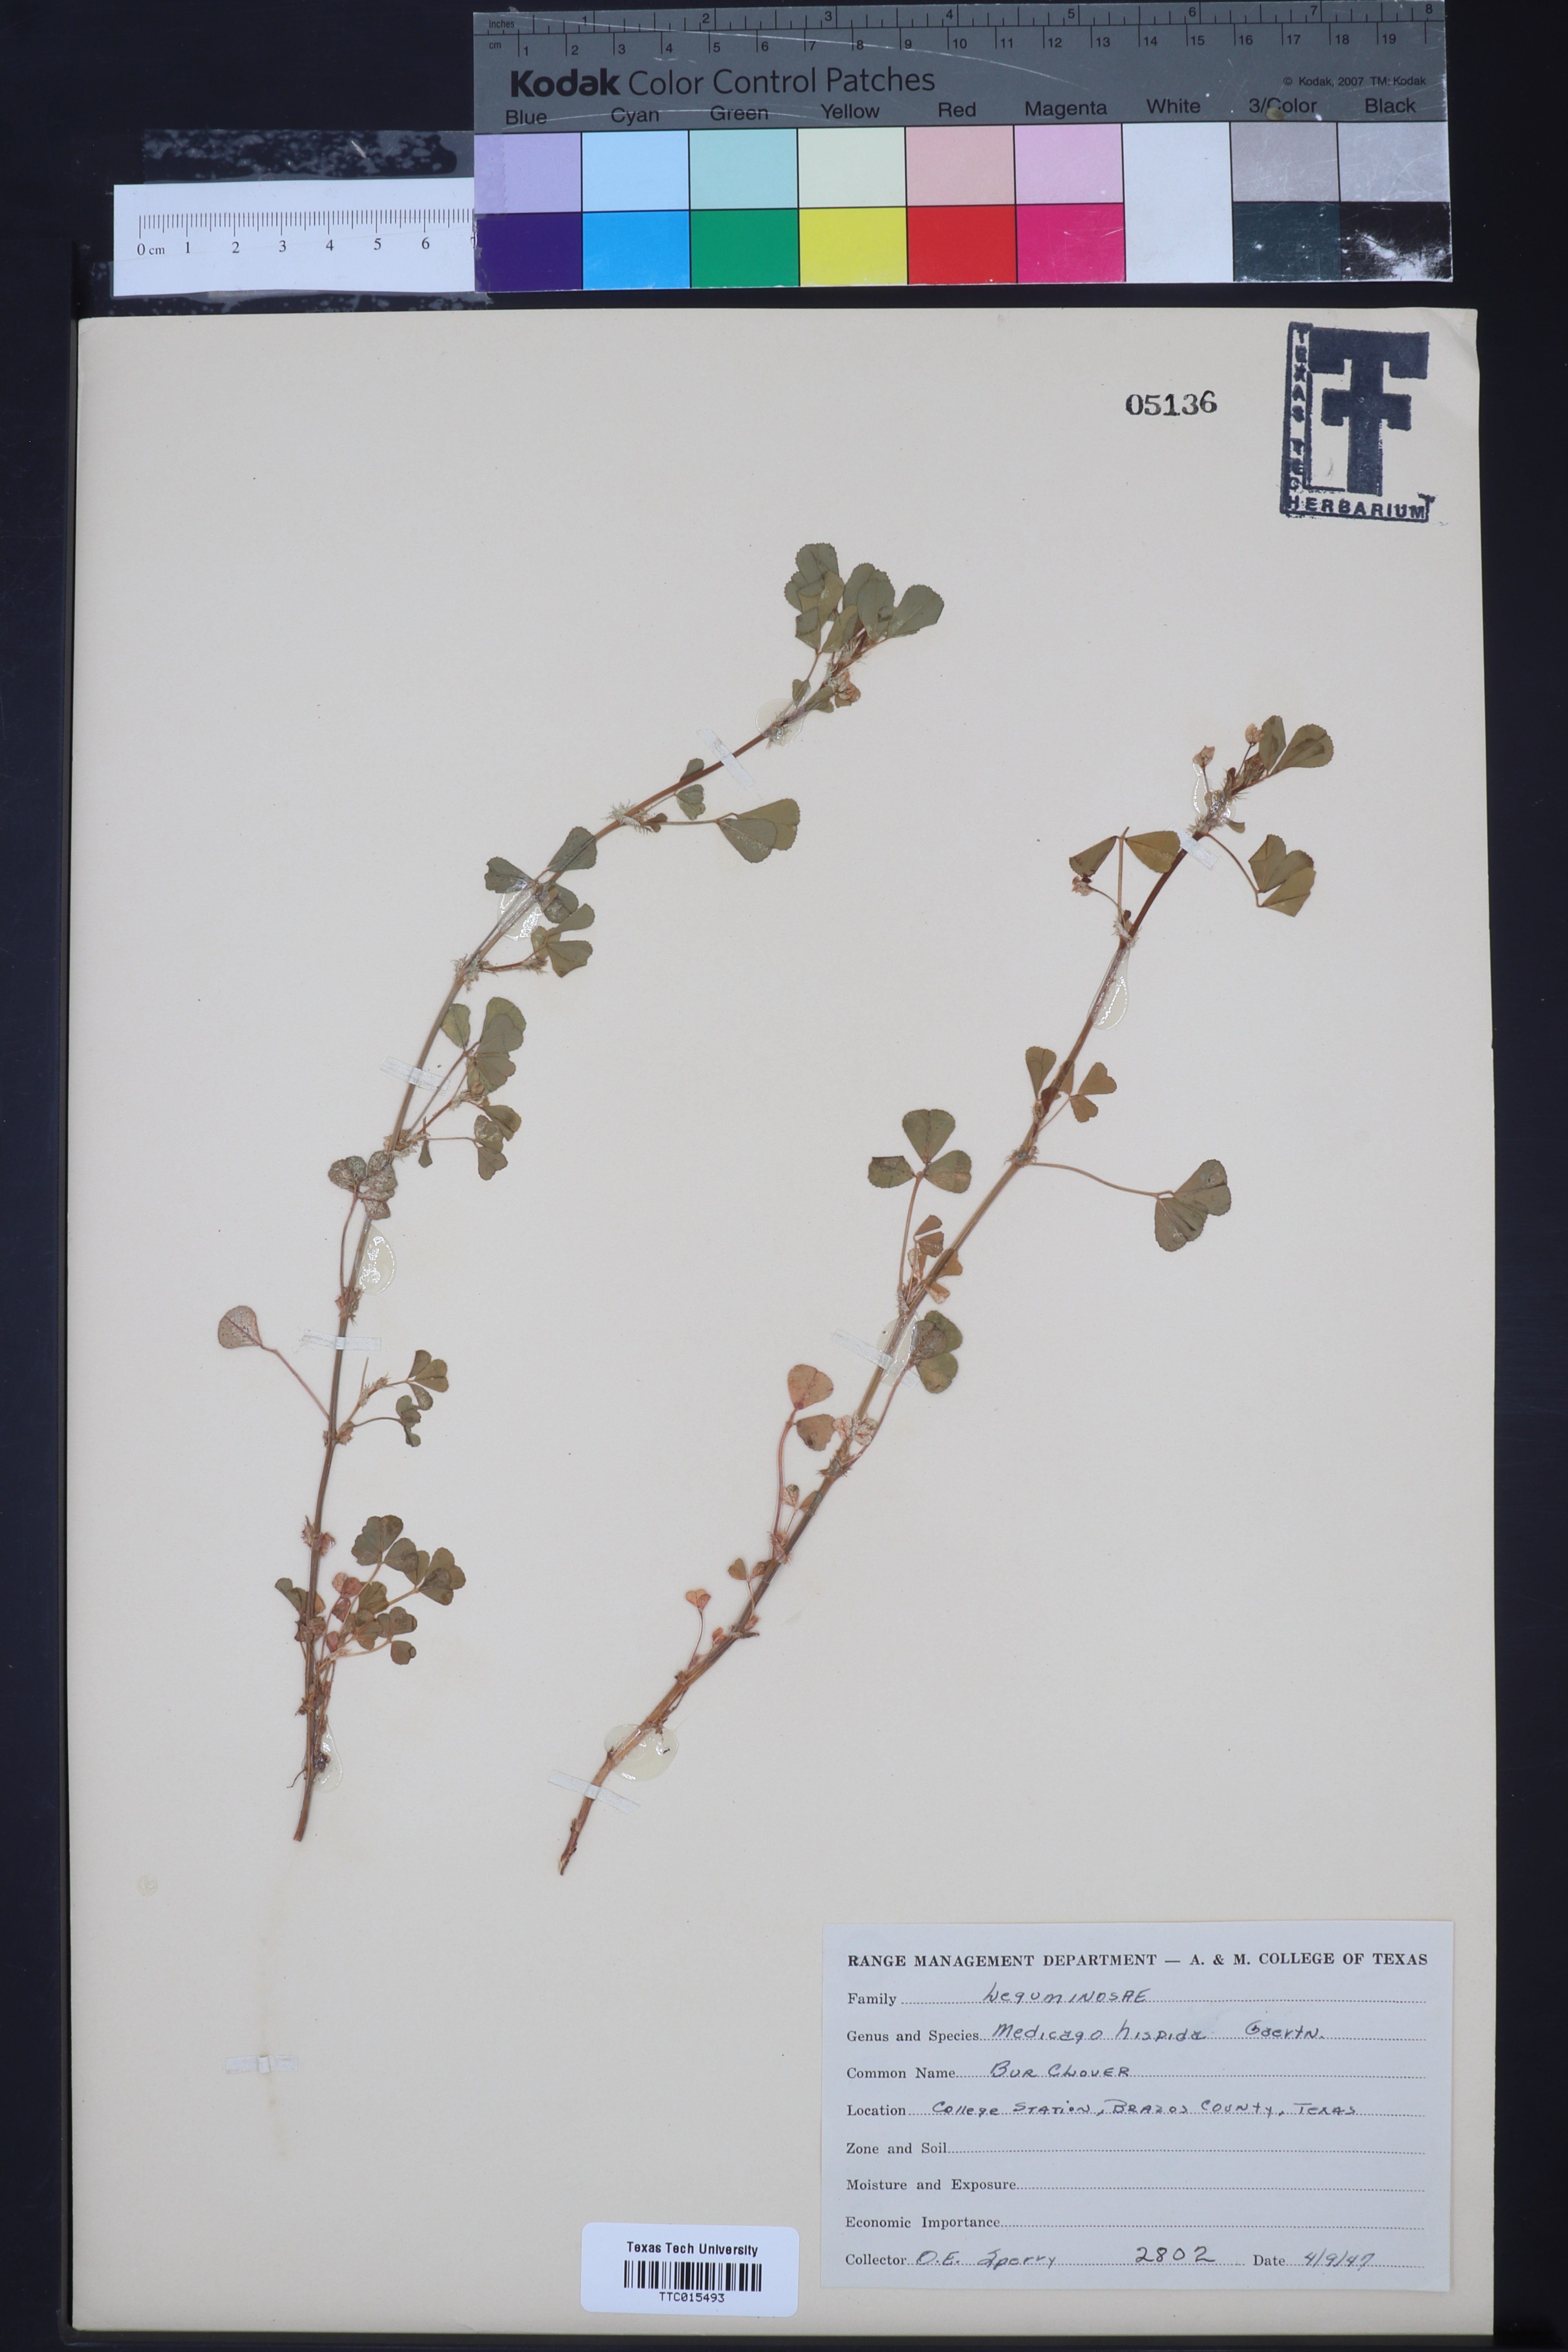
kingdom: Plantae
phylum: Tracheophyta
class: Magnoliopsida
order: Fabales
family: Fabaceae
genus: Medicago
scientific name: Medicago polymorpha
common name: Burclover
